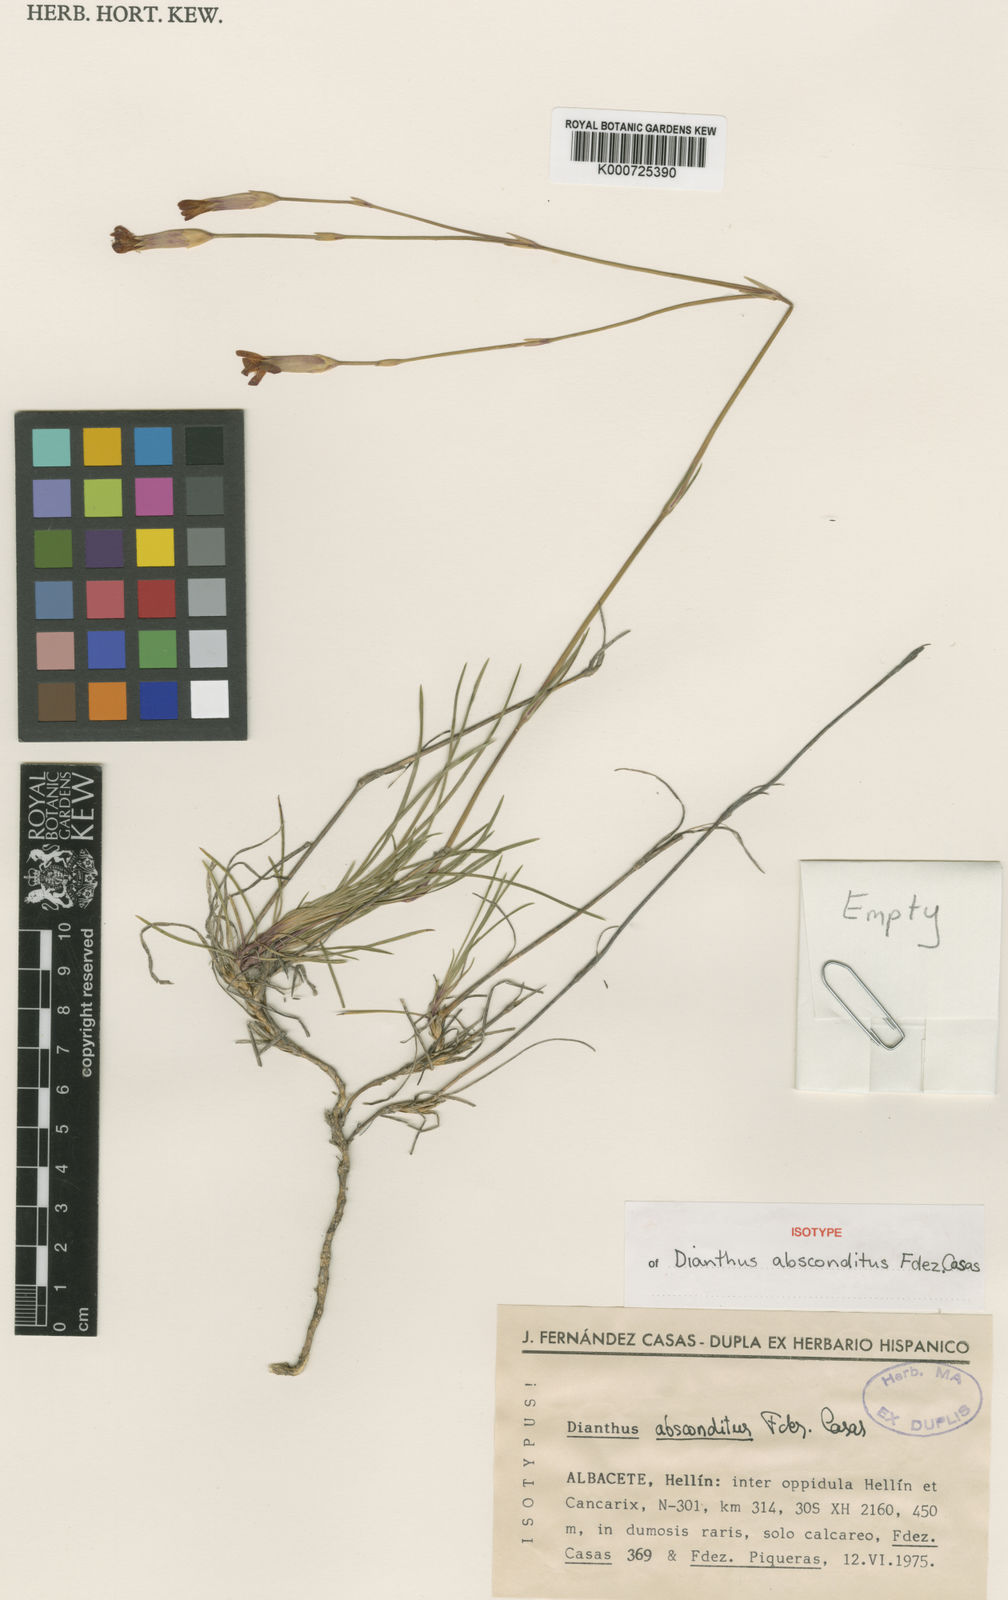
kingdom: Plantae
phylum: Tracheophyta
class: Magnoliopsida
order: Caryophyllales
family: Caryophyllaceae
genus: Dianthus
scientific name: Dianthus broteri
